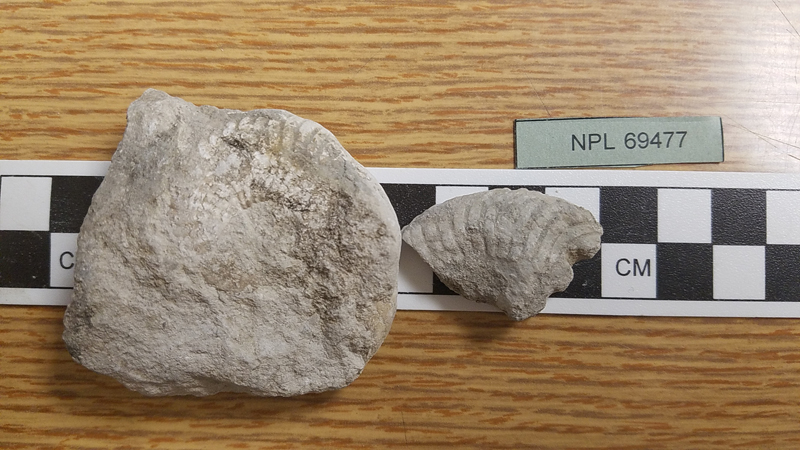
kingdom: Animalia
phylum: Mollusca
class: Cephalopoda
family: Brancoceratidae
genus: Oxytropidoceras
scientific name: Oxytropidoceras
